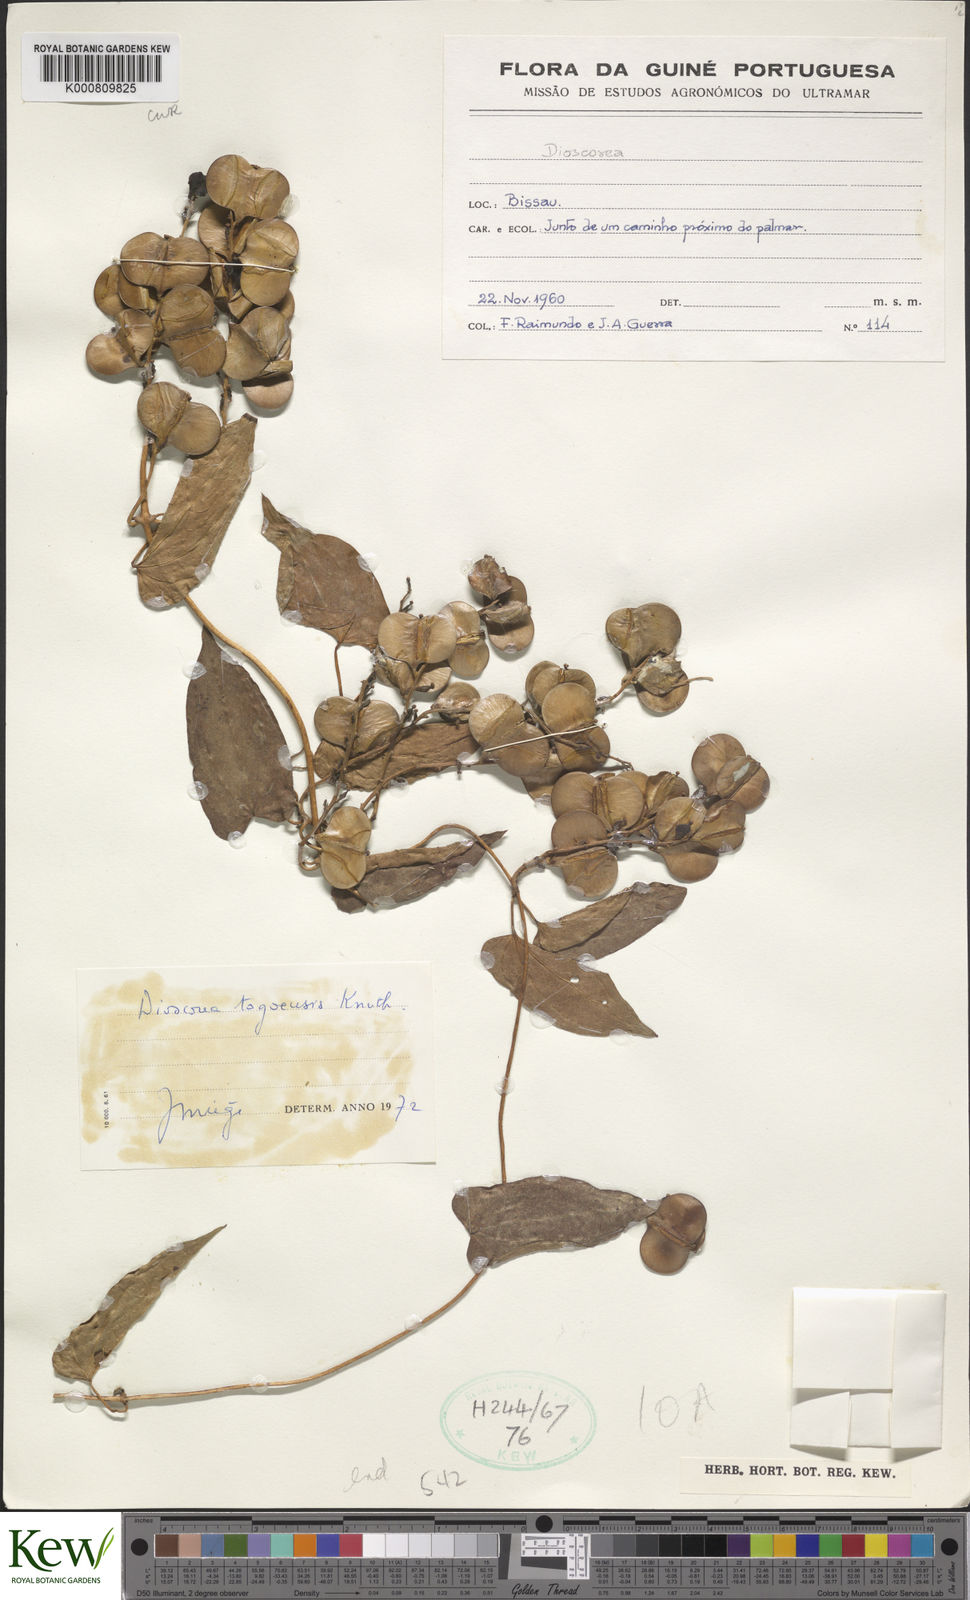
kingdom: Plantae
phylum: Tracheophyta
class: Liliopsida
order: Dioscoreales
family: Dioscoreaceae
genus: Dioscorea
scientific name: Dioscorea togoensis
